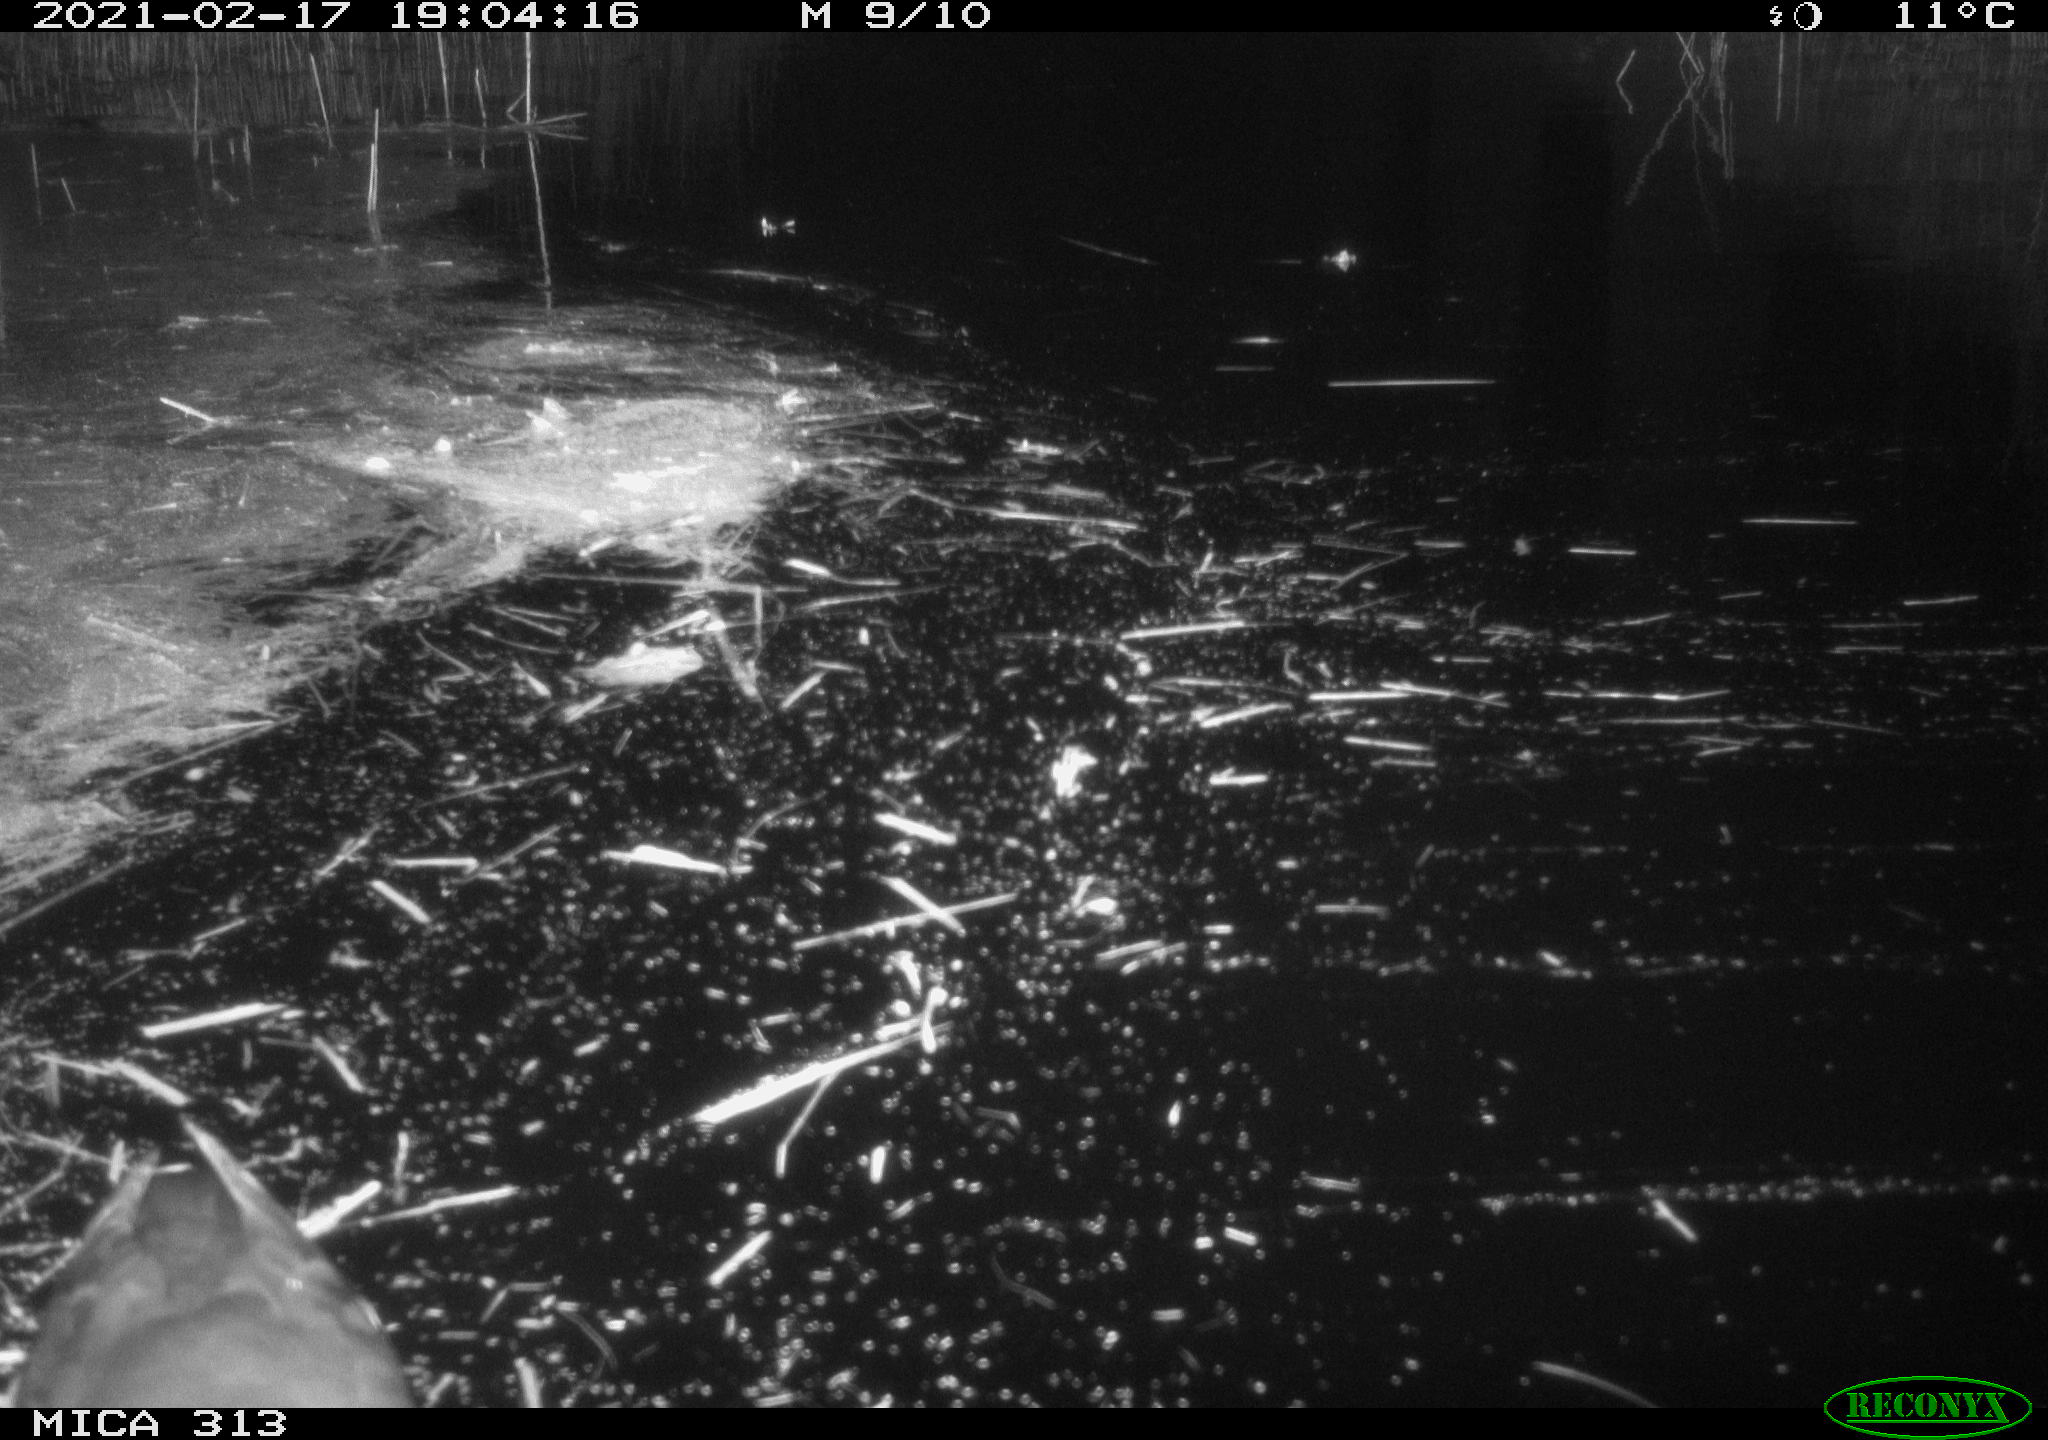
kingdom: Animalia
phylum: Chordata
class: Aves
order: Gruiformes
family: Rallidae
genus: Gallinula
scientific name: Gallinula chloropus
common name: Common moorhen
